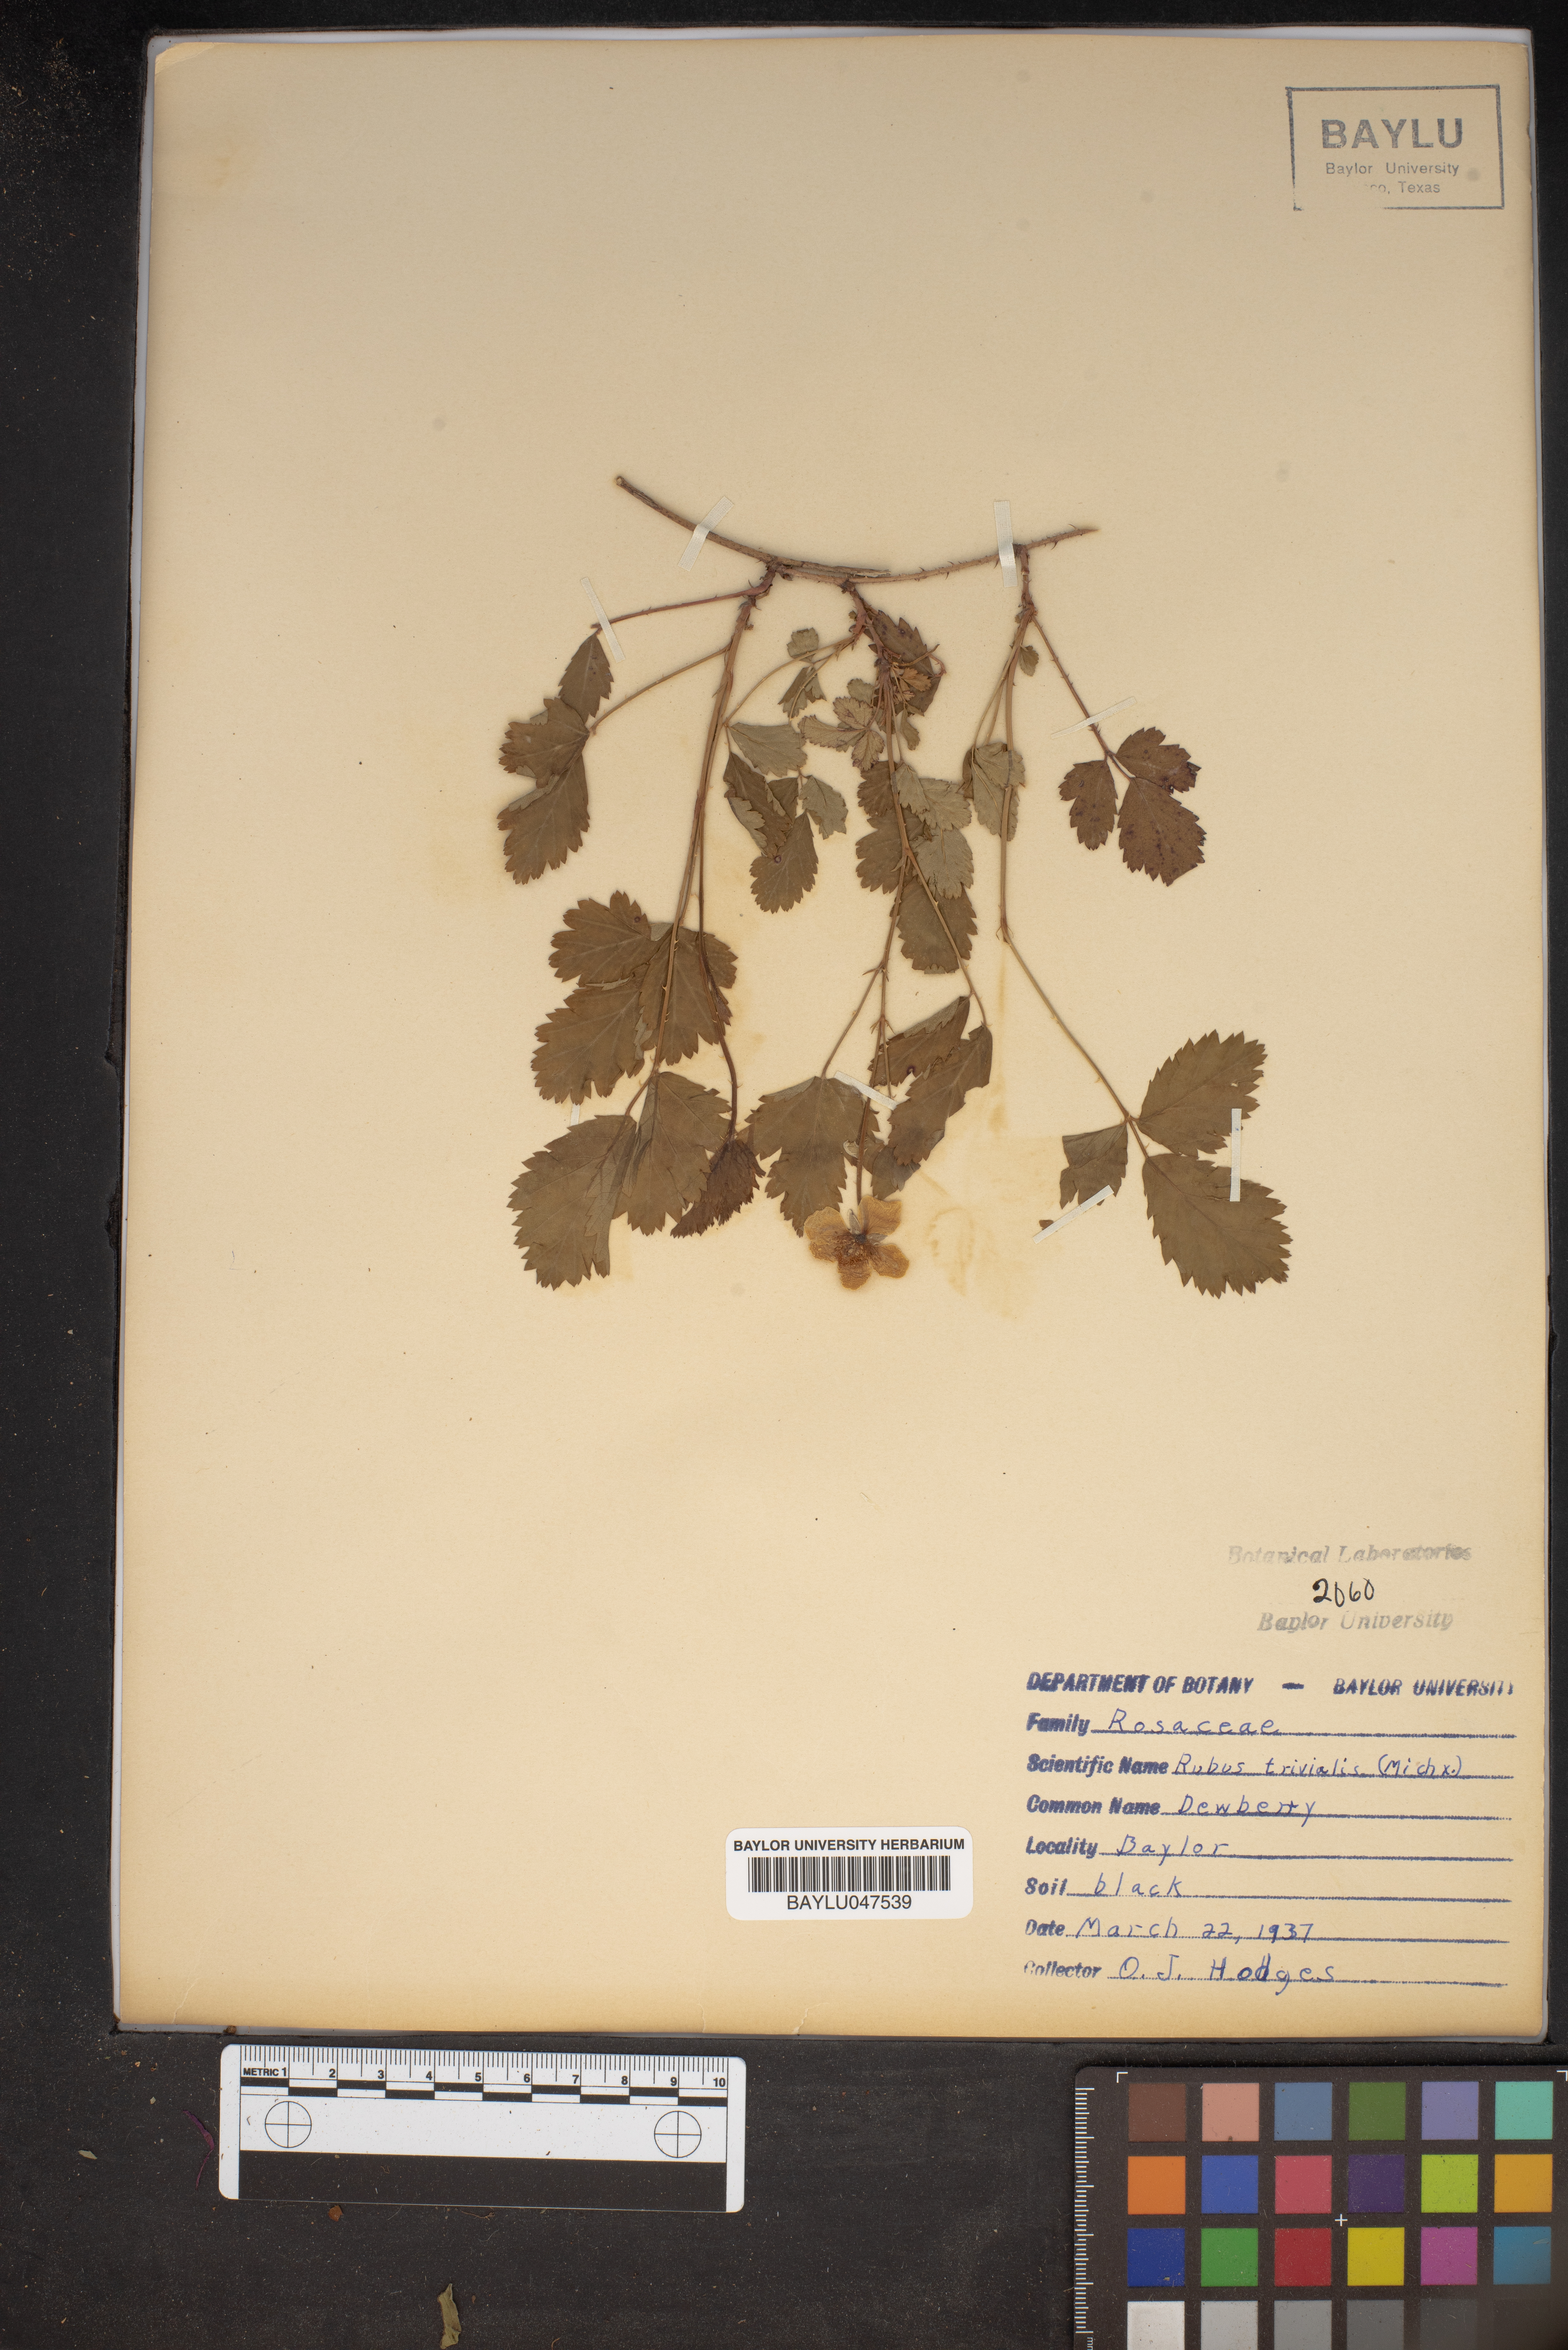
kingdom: Plantae
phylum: Tracheophyta
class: Magnoliopsida
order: Rosales
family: Rosaceae
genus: Rubus
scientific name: Rubus trivialis
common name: Southern dewberry
